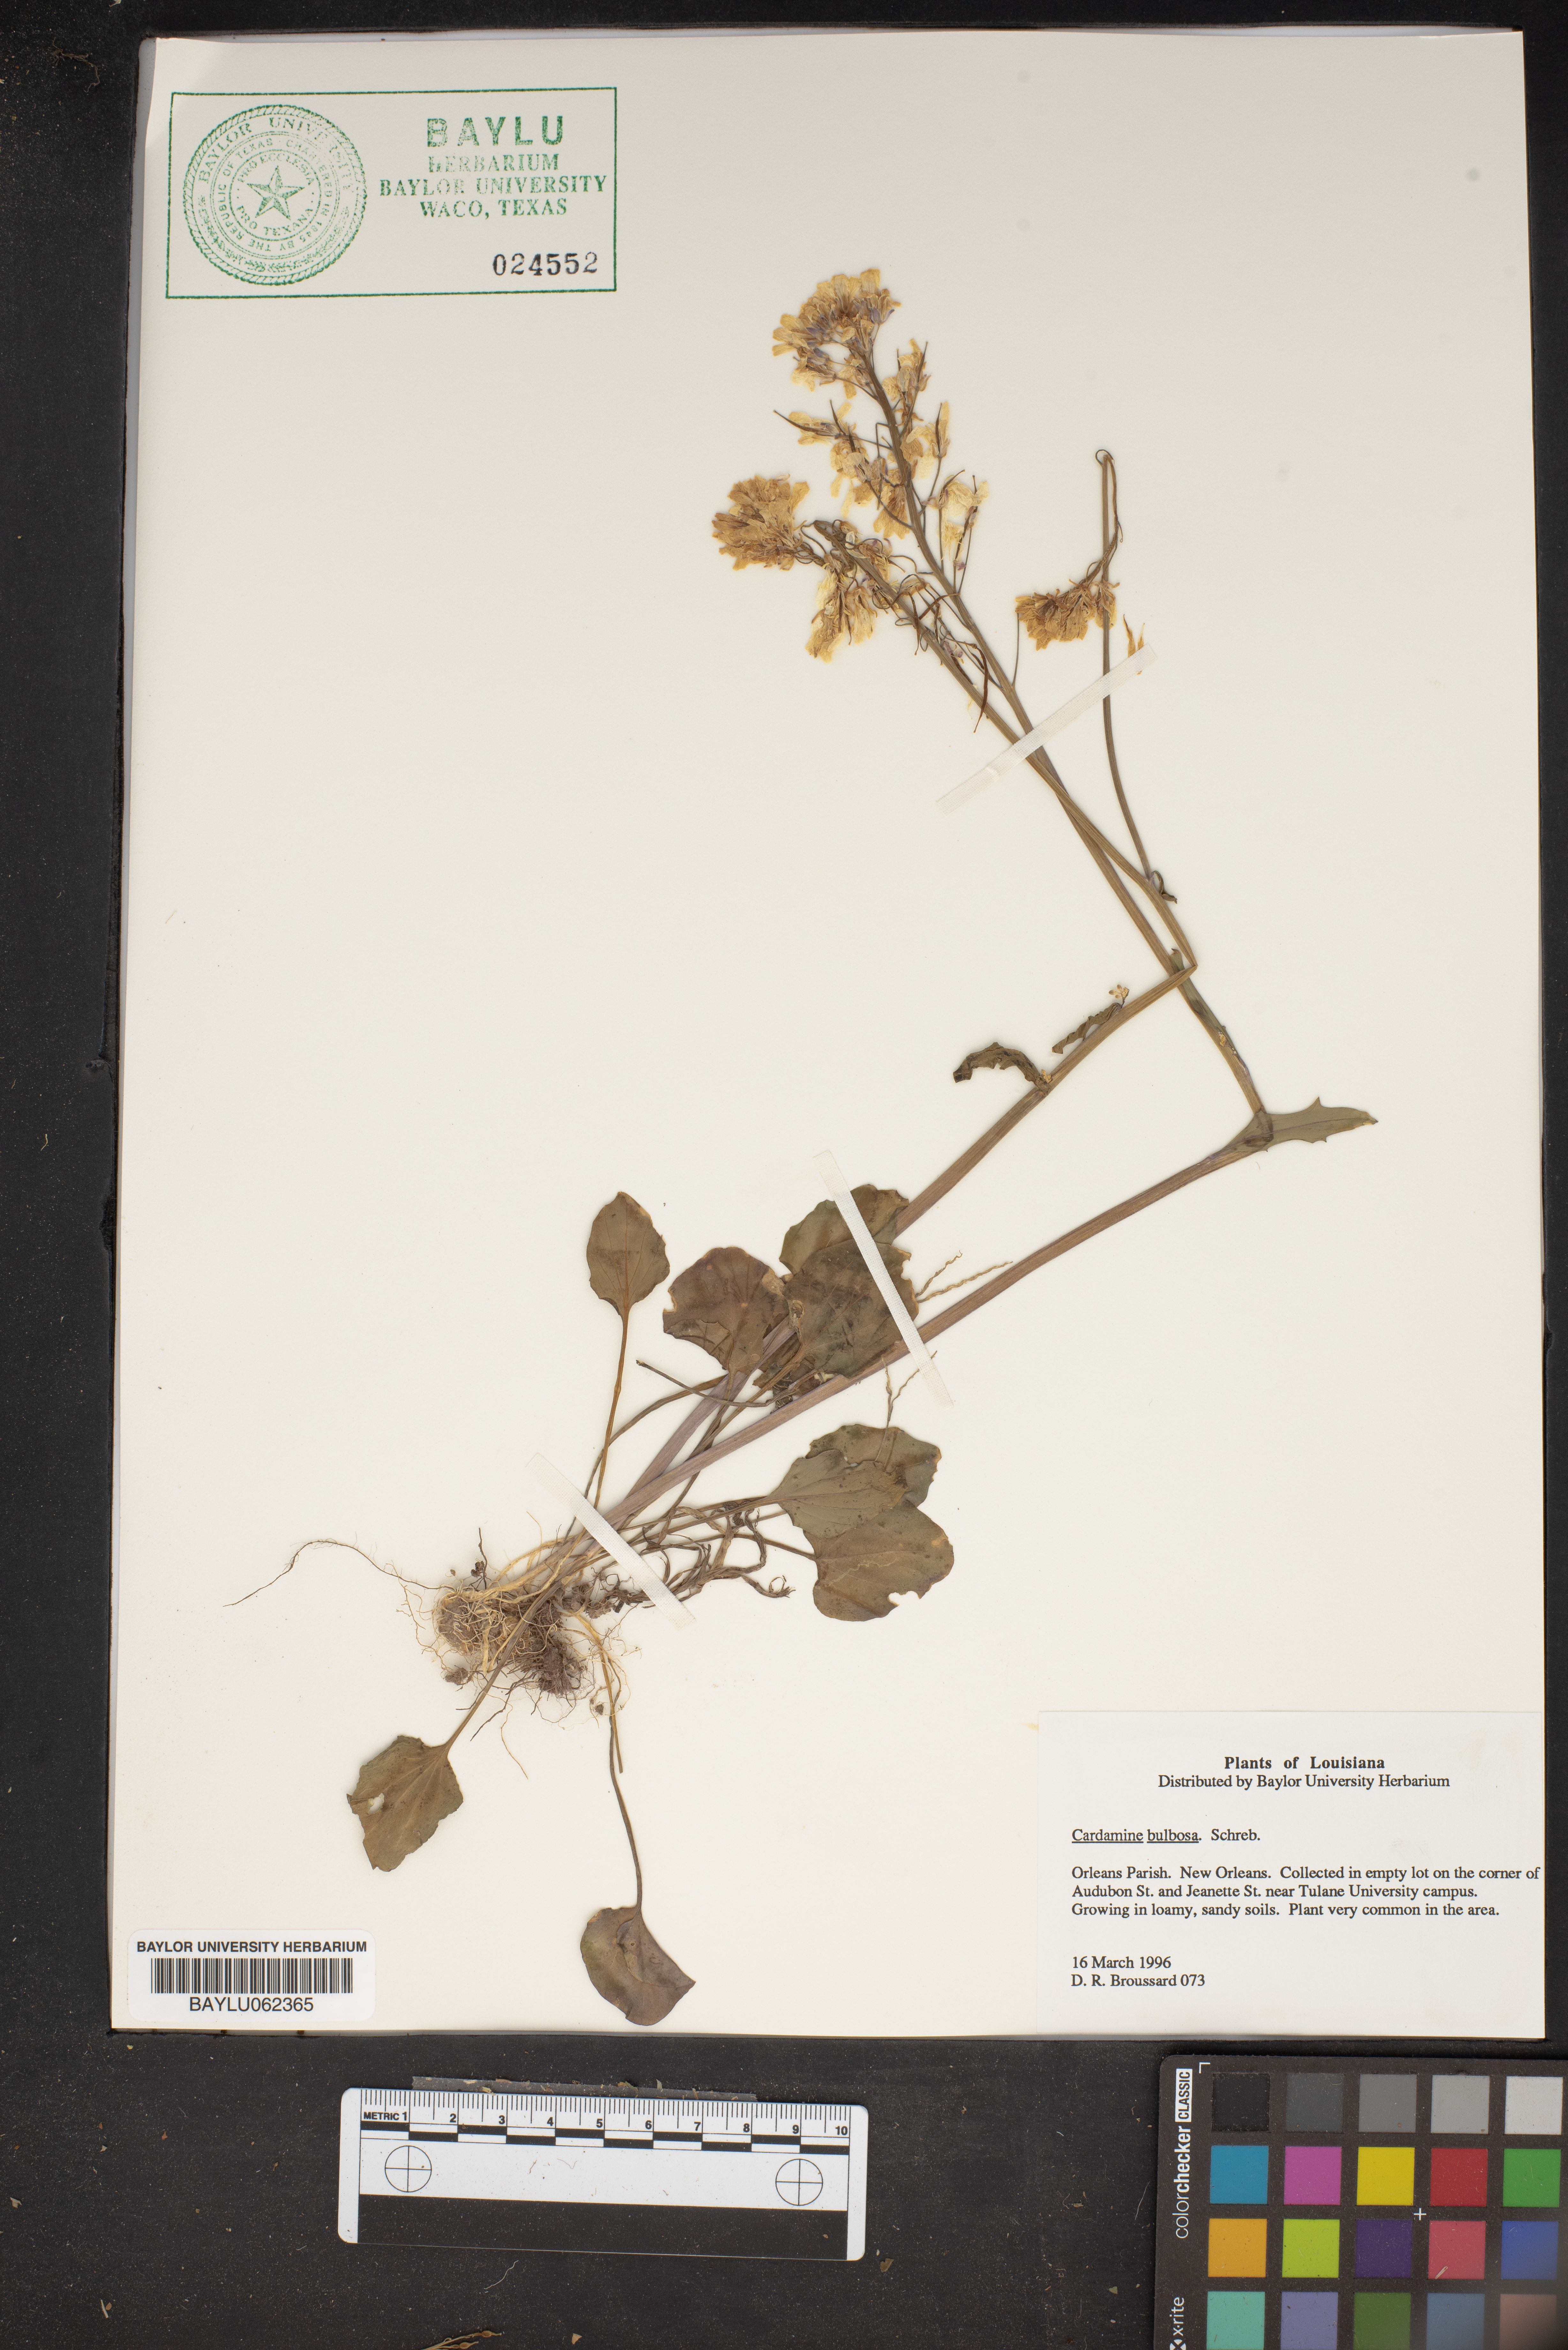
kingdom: Plantae
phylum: Tracheophyta
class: Magnoliopsida
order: Brassicales
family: Brassicaceae
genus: Cardamine
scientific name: Cardamine bulbosa
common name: Spring cress
